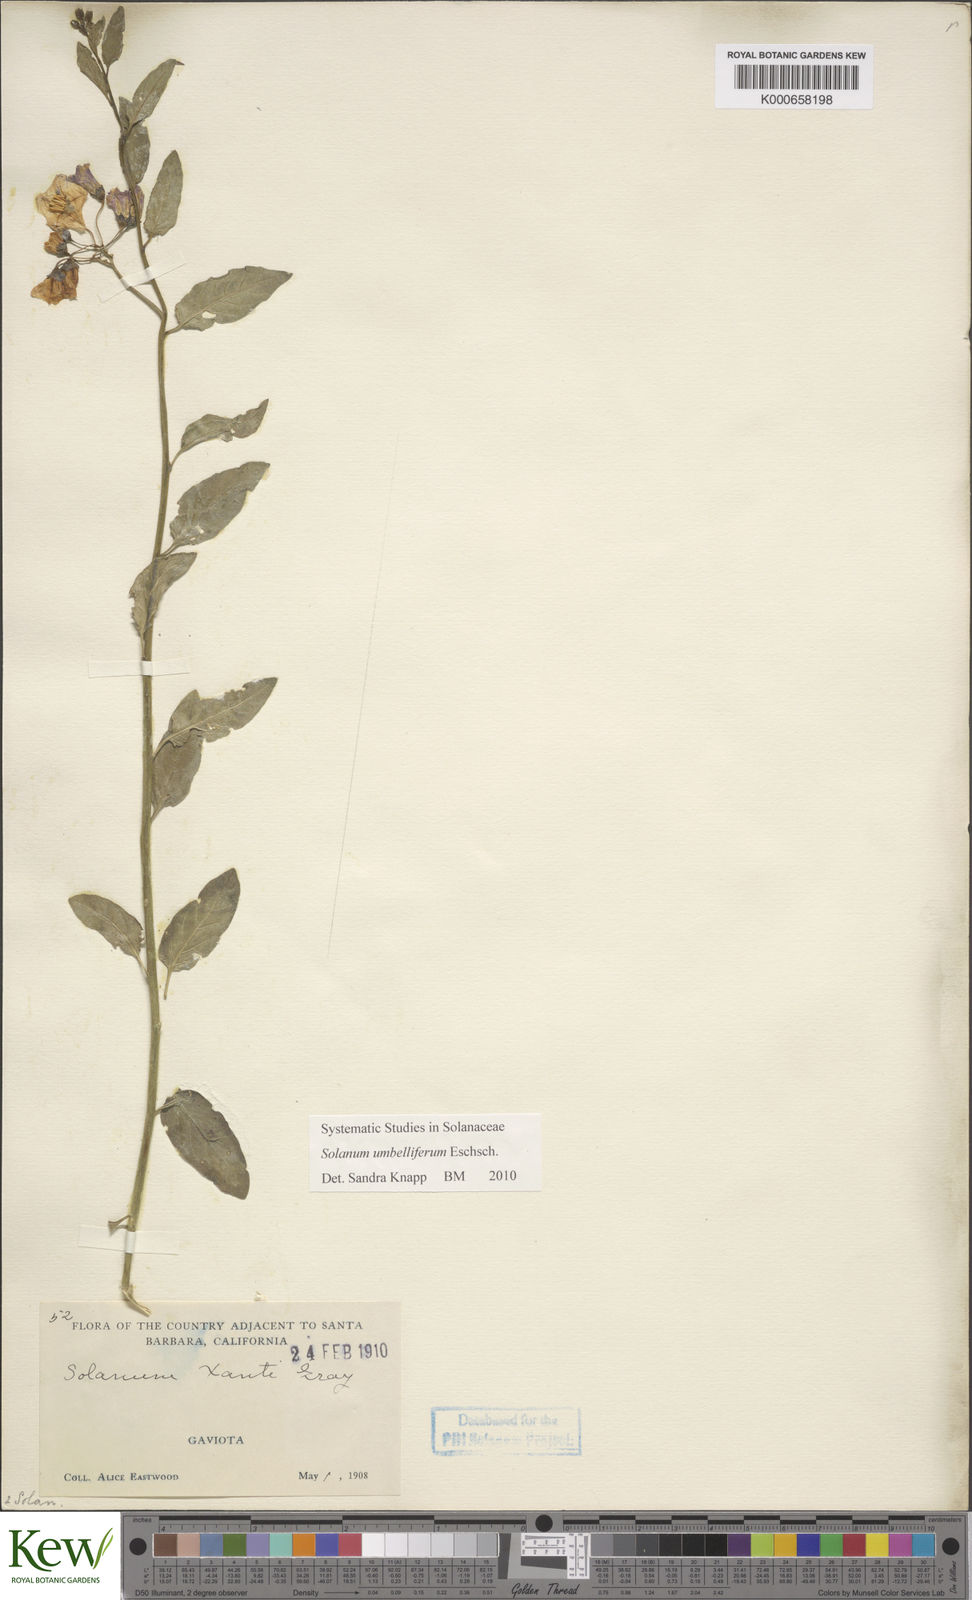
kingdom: Plantae
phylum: Tracheophyta
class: Magnoliopsida
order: Solanales
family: Solanaceae
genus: Solanum
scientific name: Solanum umbelliferum
